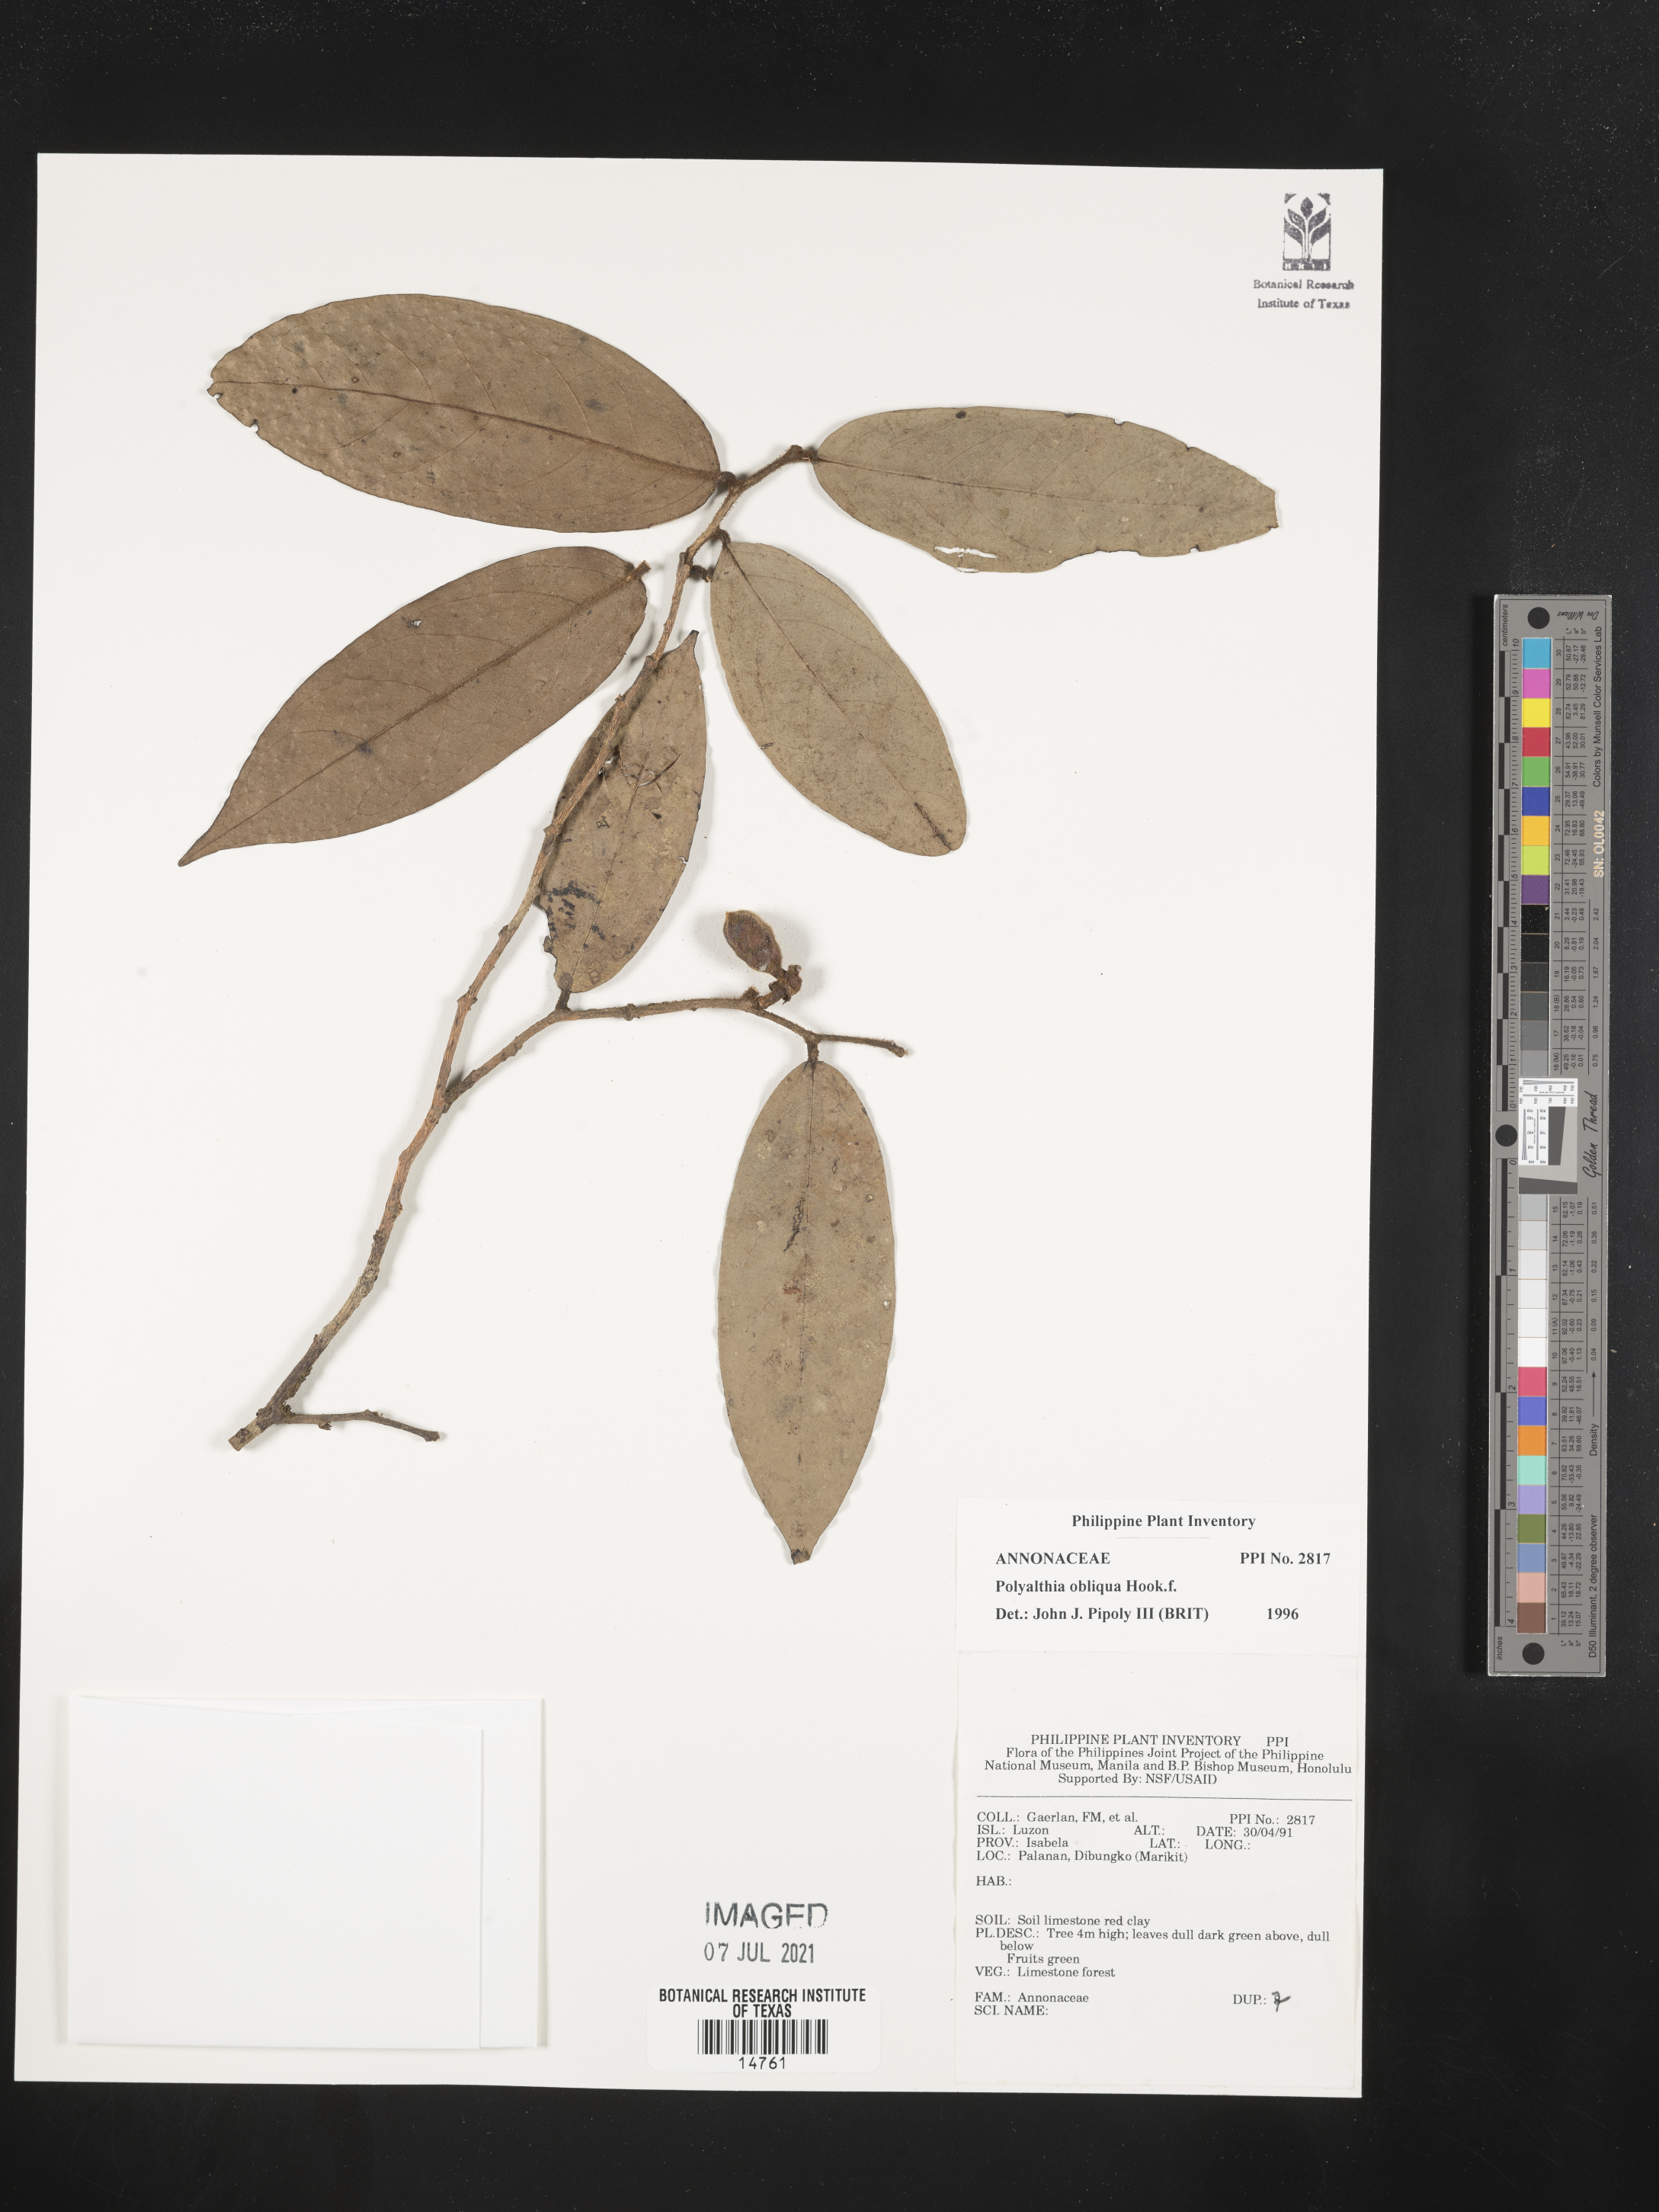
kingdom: Plantae
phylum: Tracheophyta
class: Magnoliopsida
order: Magnoliales
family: Annonaceae
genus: Polyalthia
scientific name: Polyalthia obliqua
